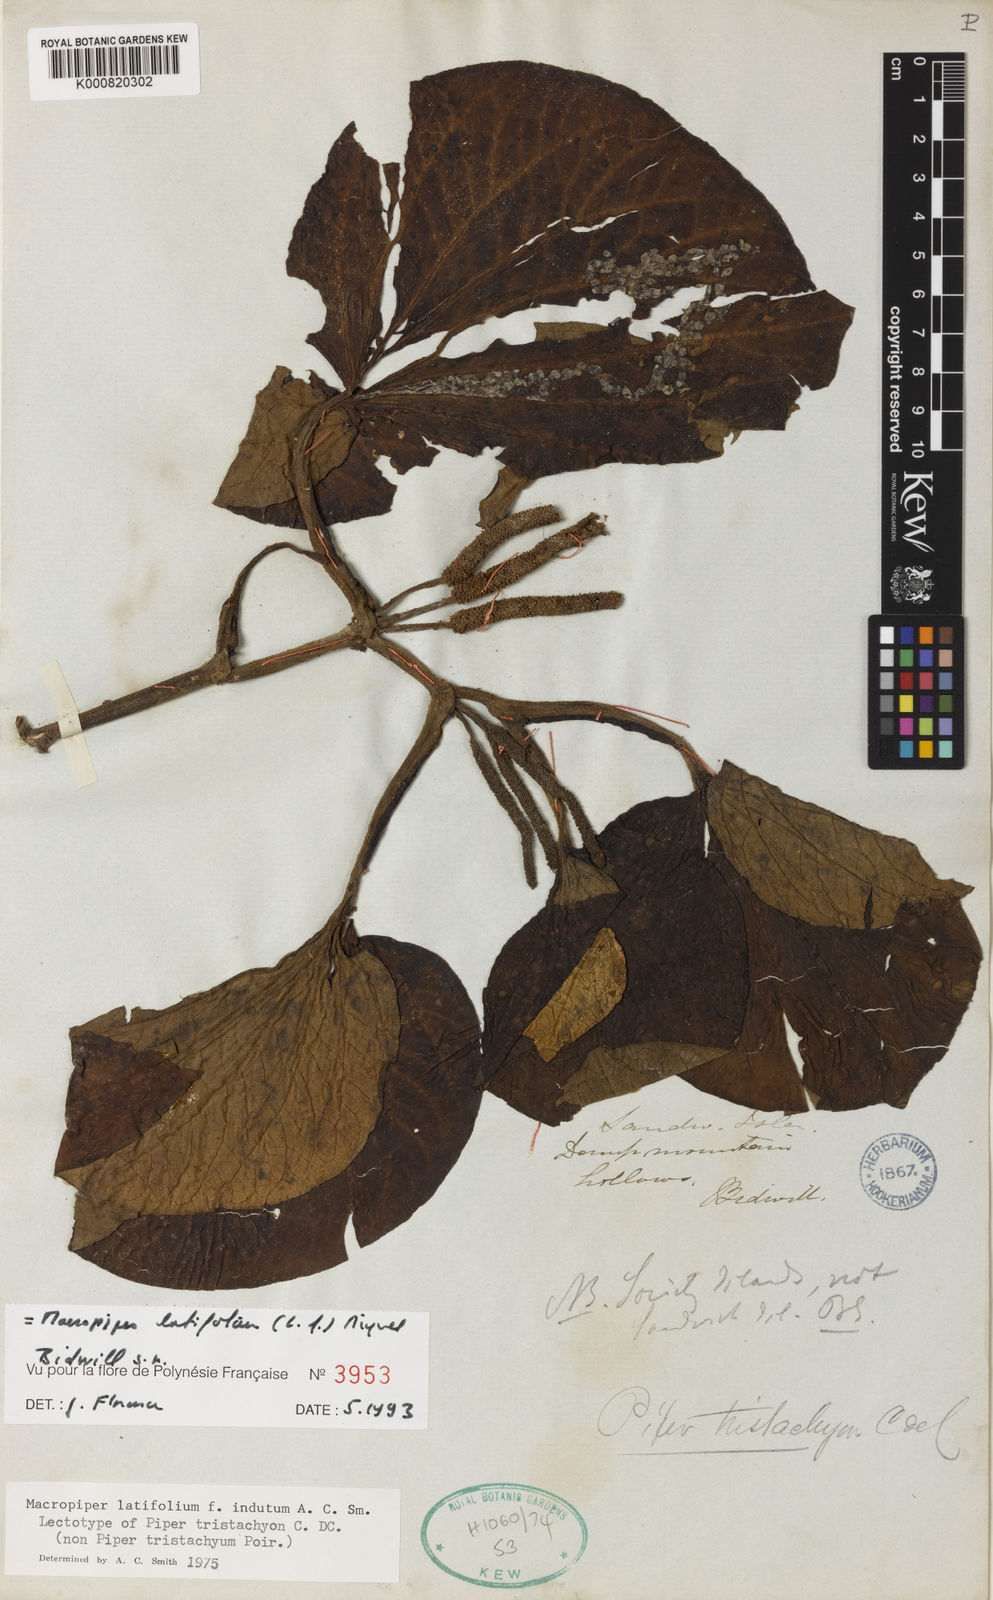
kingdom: Plantae
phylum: Tracheophyta
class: Magnoliopsida
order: Piperales
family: Piperaceae
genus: Macropiper
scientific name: Macropiper latifolium
